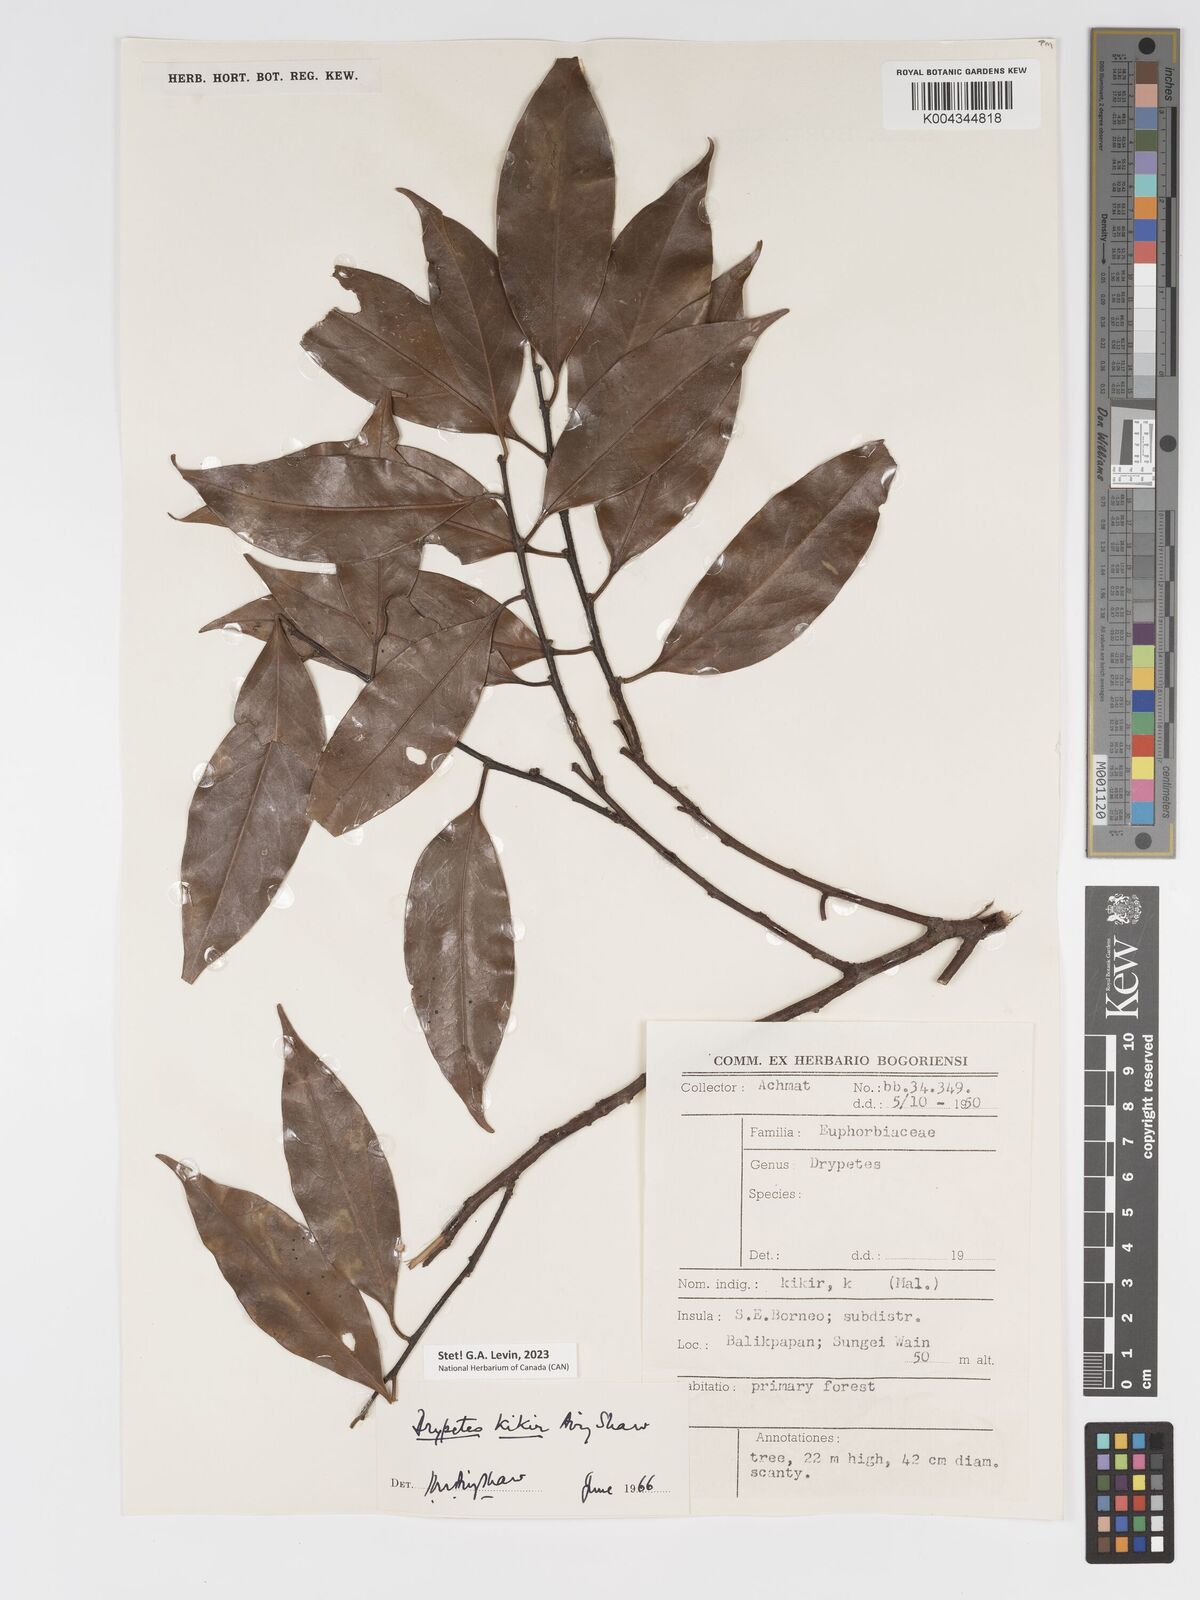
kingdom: Plantae
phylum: Tracheophyta
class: Magnoliopsida
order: Malpighiales
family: Putranjivaceae
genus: Drypetes
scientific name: Drypetes kikir
